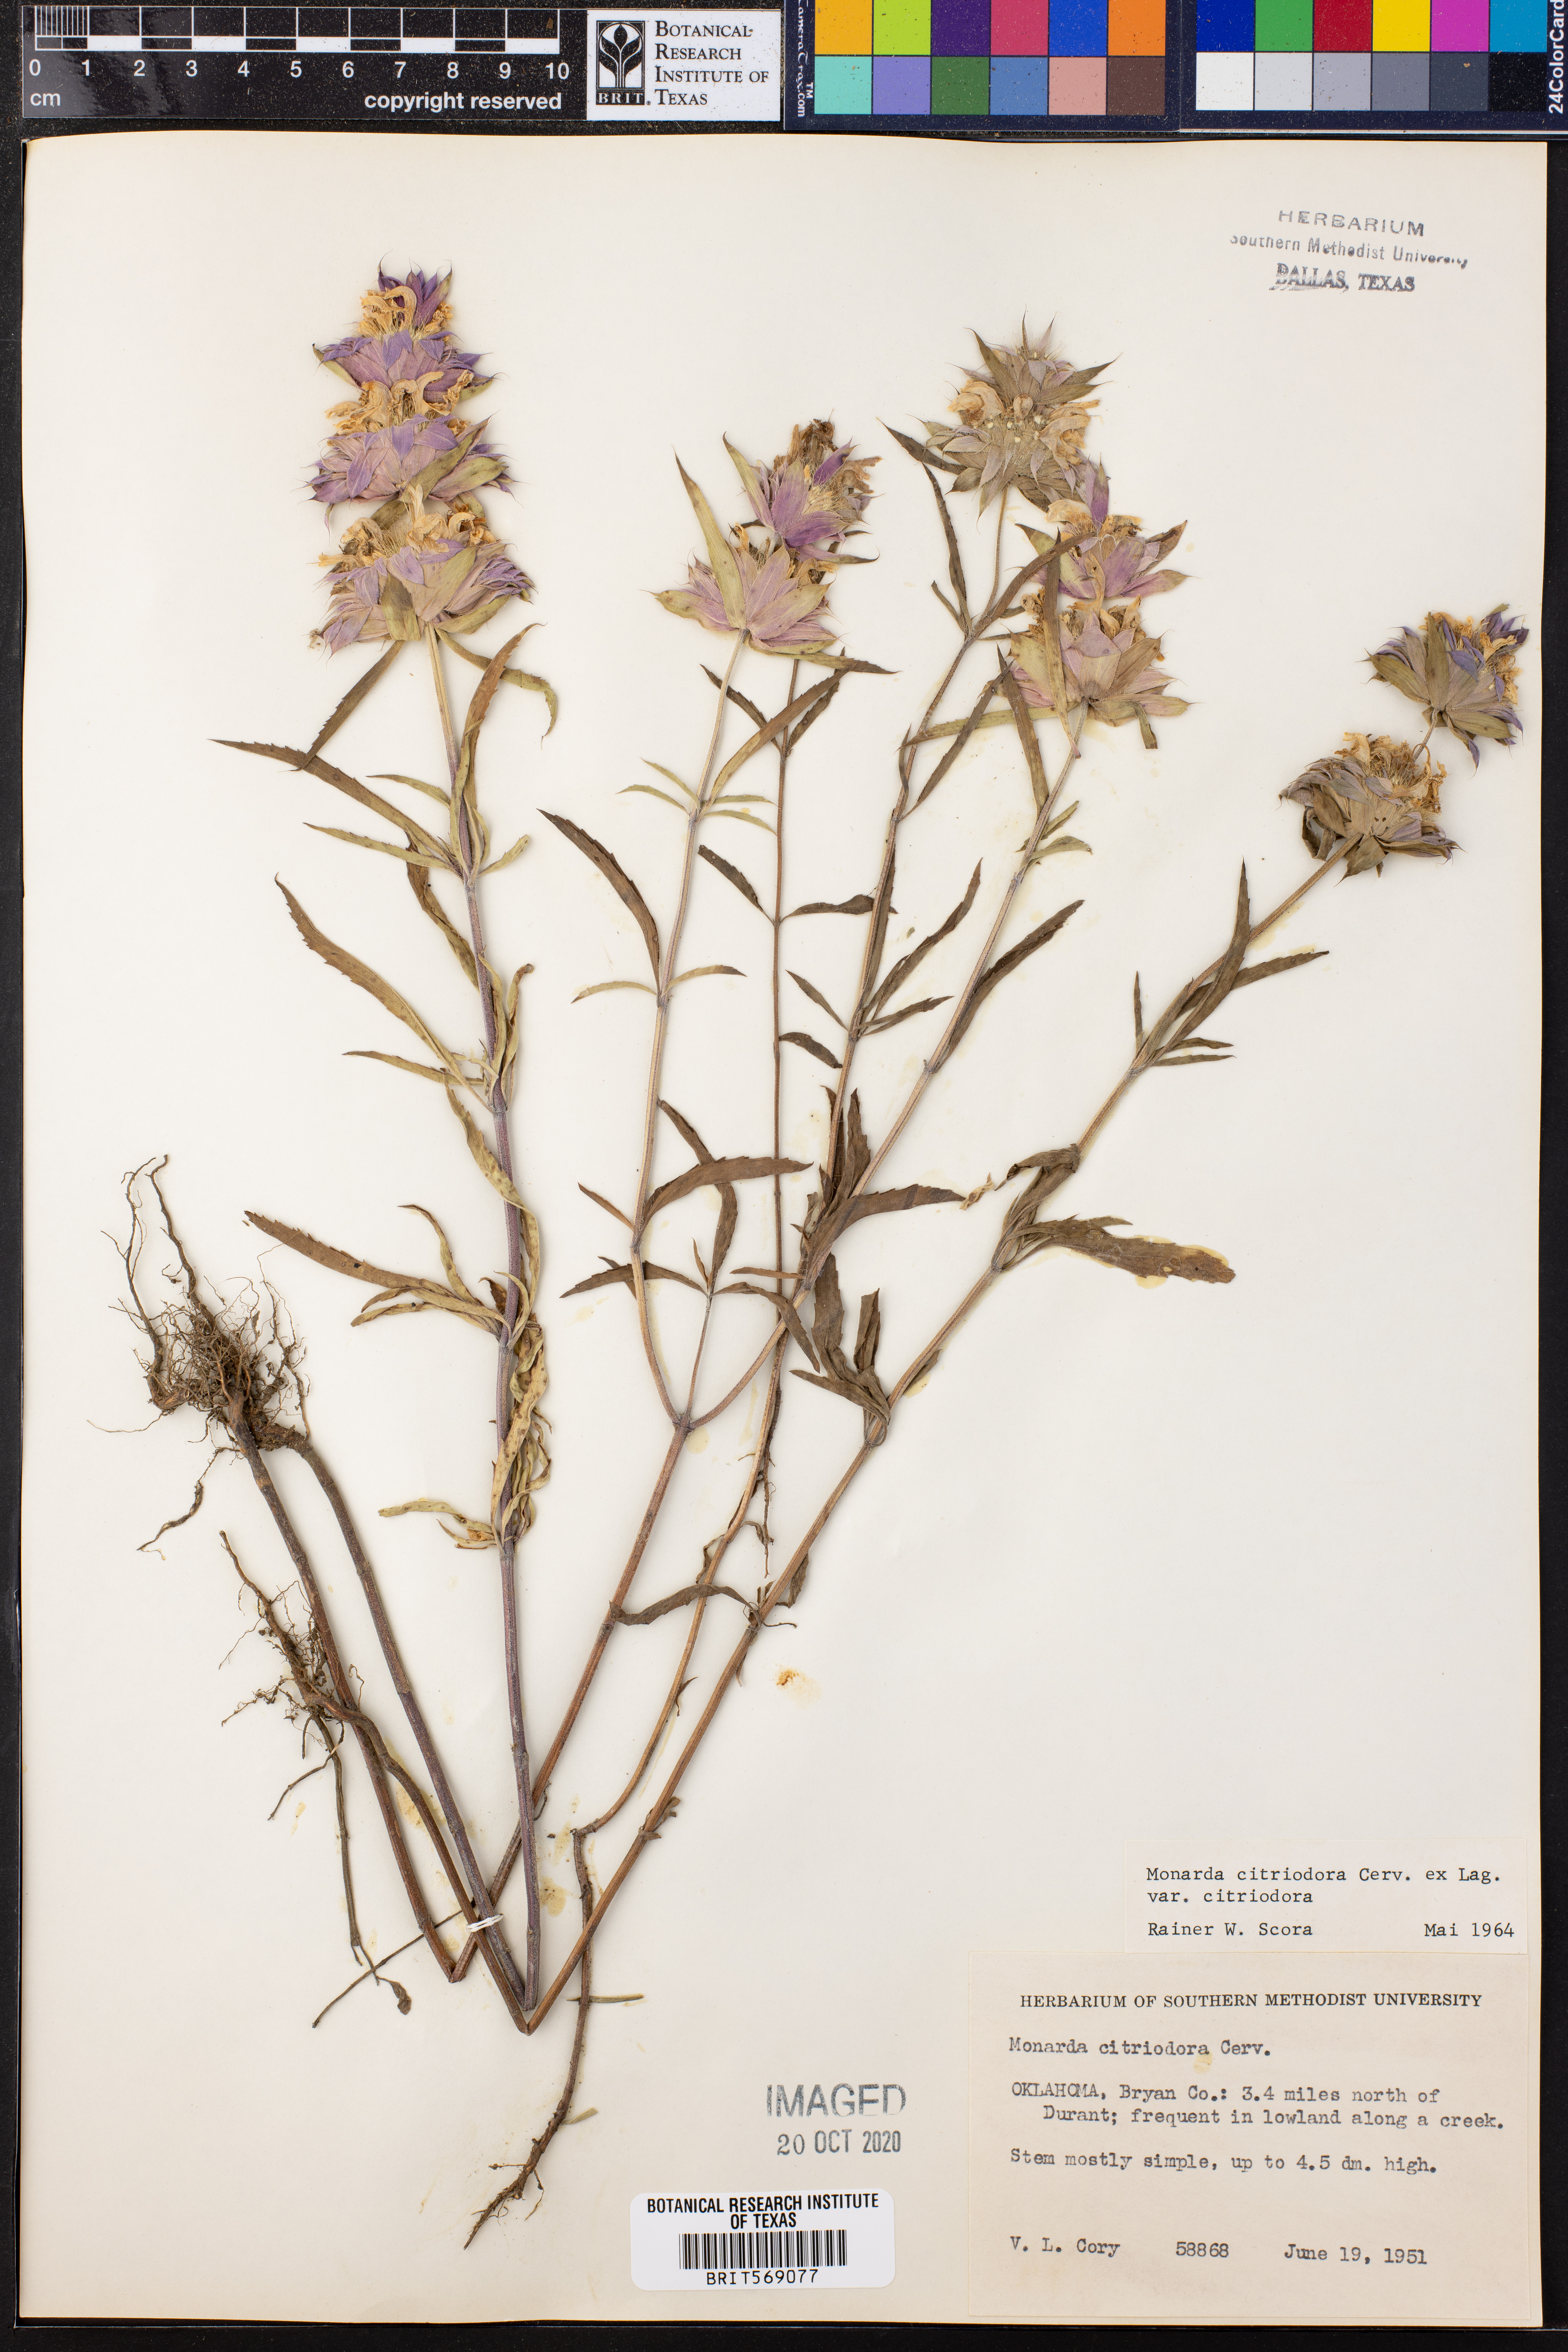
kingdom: Plantae
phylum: Tracheophyta
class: Magnoliopsida
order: Lamiales
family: Lamiaceae
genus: Monarda
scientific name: Monarda citriodora
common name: Lemon beebalm
